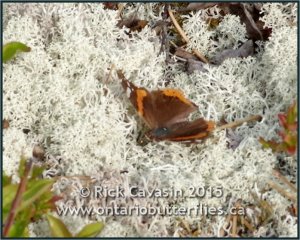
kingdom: Animalia
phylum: Arthropoda
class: Insecta
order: Lepidoptera
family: Nymphalidae
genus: Vanessa
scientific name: Vanessa atalanta
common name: Red Admiral
